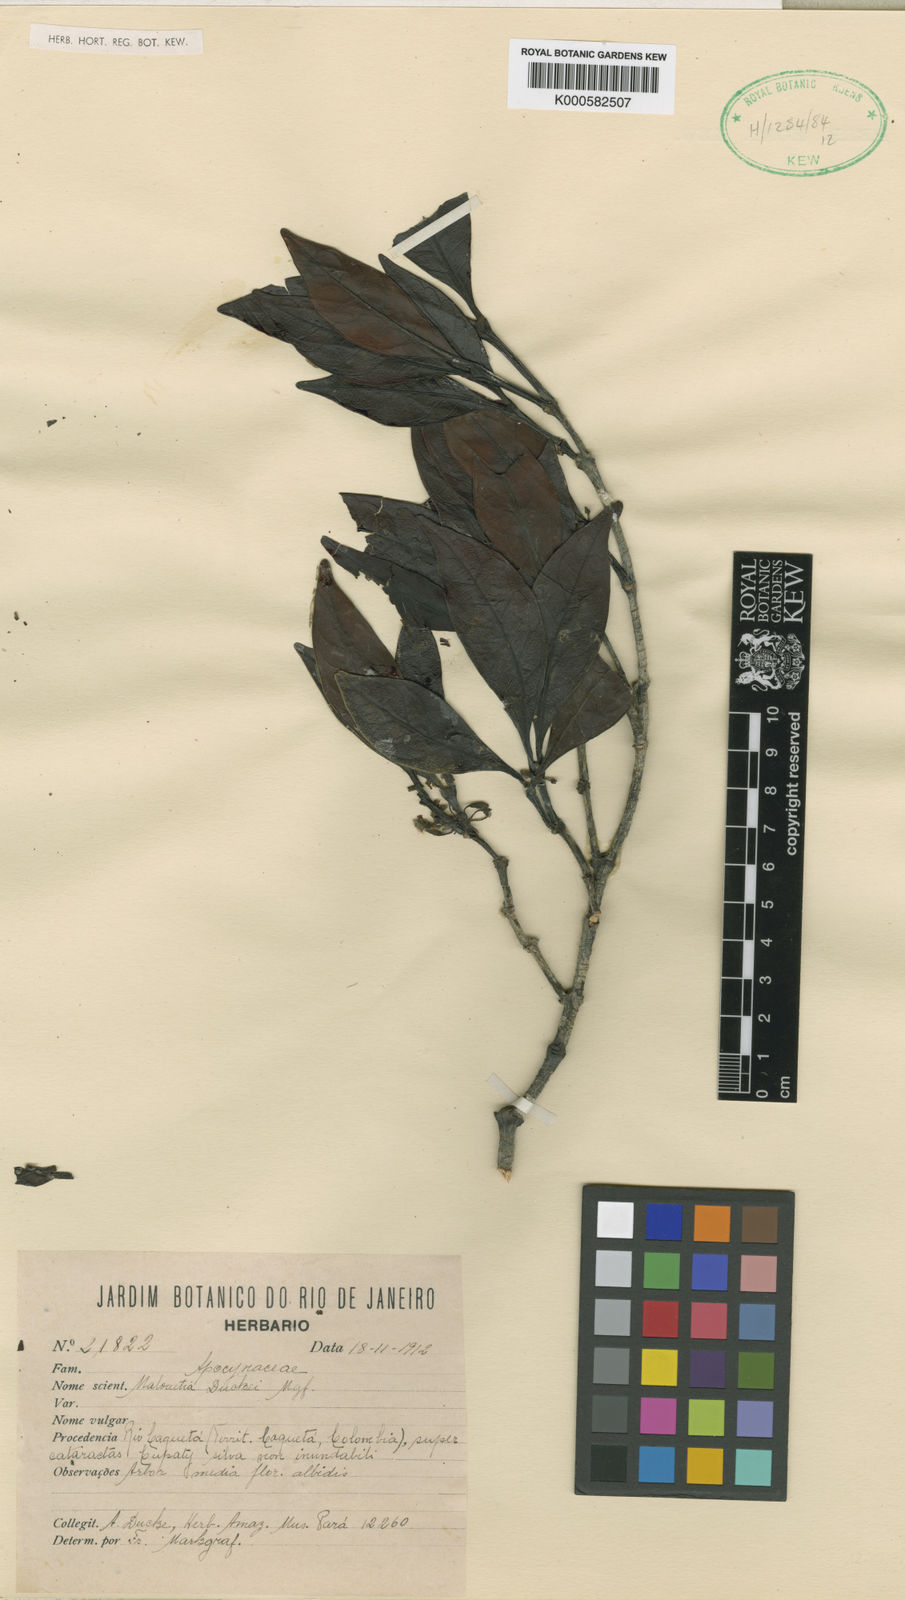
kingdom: Plantae
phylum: Tracheophyta
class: Magnoliopsida
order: Gentianales
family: Apocynaceae
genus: Malouetia
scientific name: Malouetia duckei
